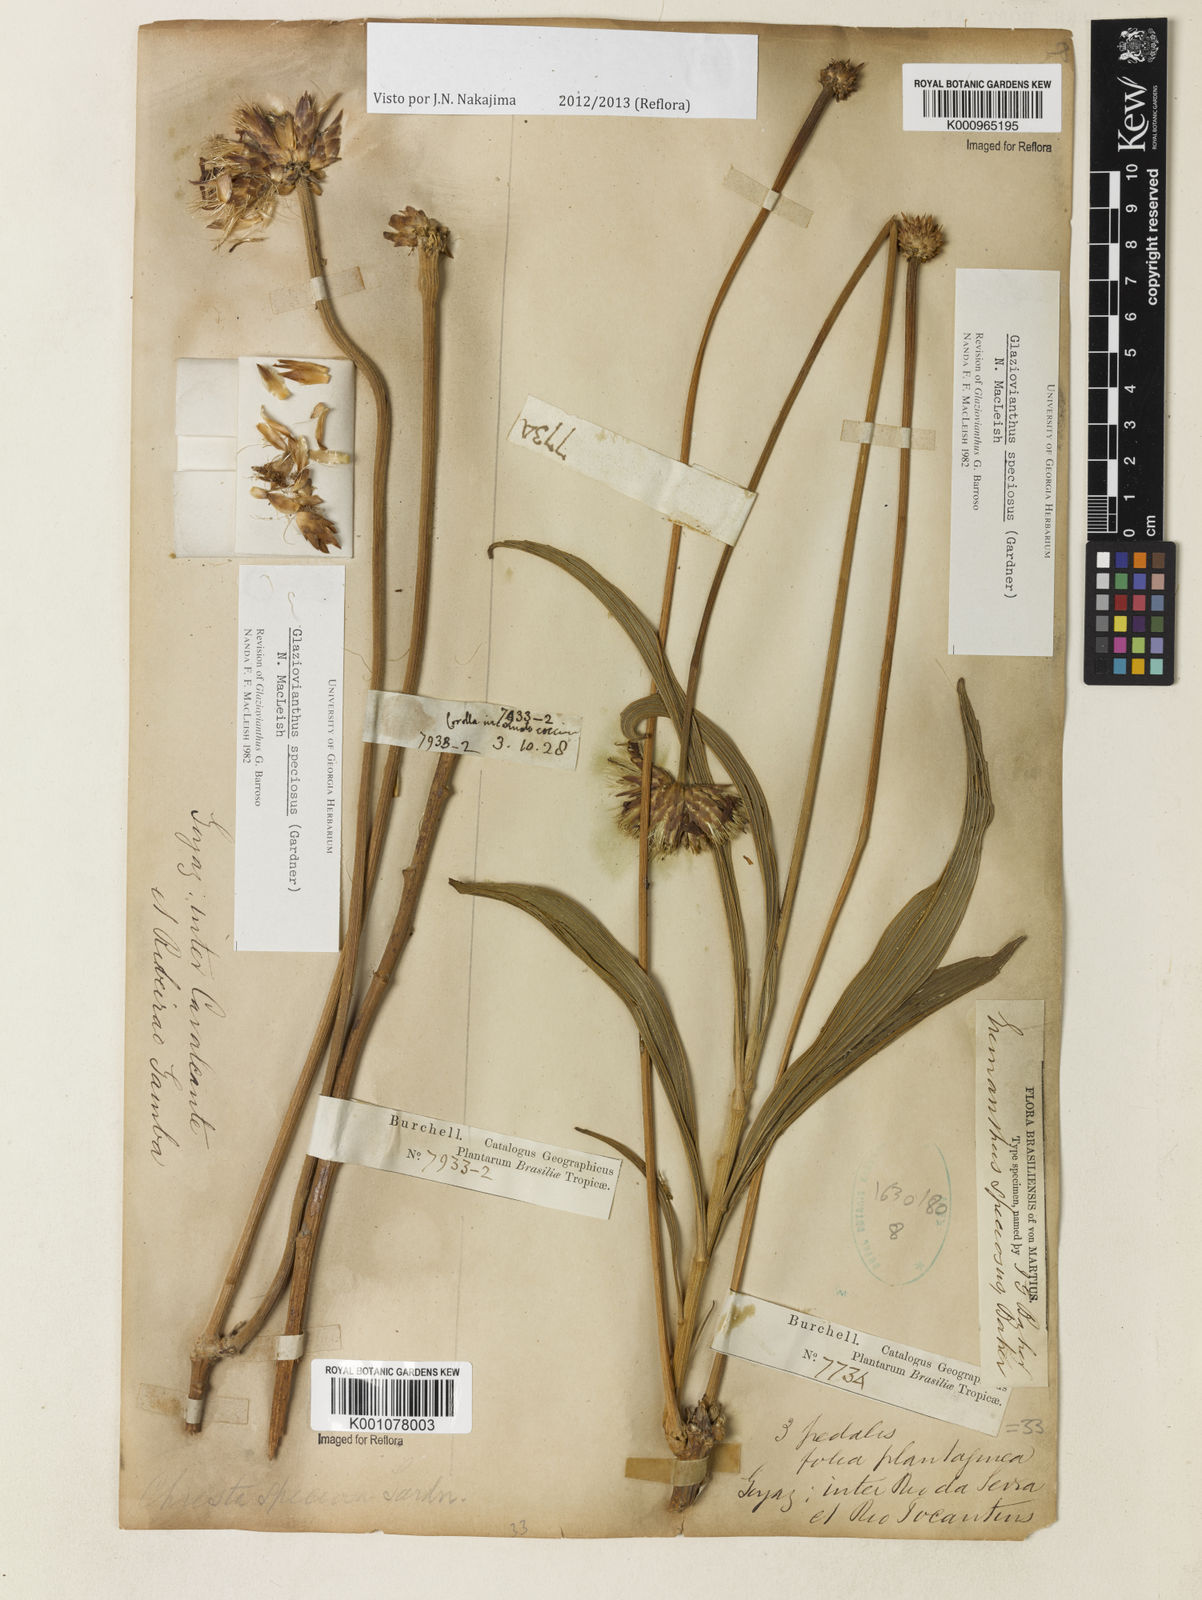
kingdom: Plantae
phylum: Tracheophyta
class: Magnoliopsida
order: Asterales
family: Asteraceae
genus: Chresta
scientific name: Chresta speciosa
